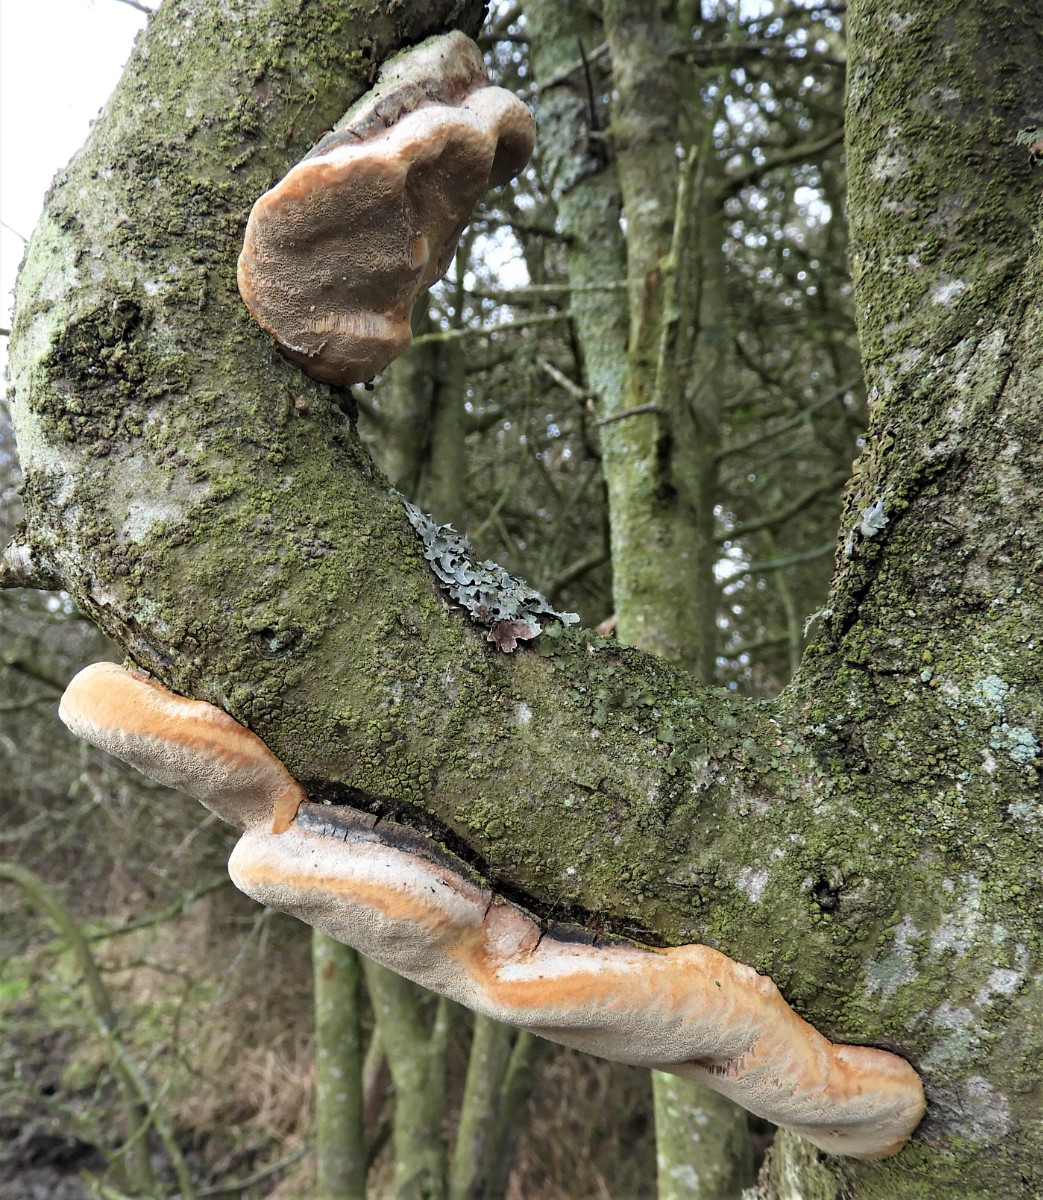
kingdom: Fungi
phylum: Basidiomycota
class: Agaricomycetes
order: Hymenochaetales
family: Hymenochaetaceae
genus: Phellinus
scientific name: Phellinus pomaceus
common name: blomme-ildporesvamp
